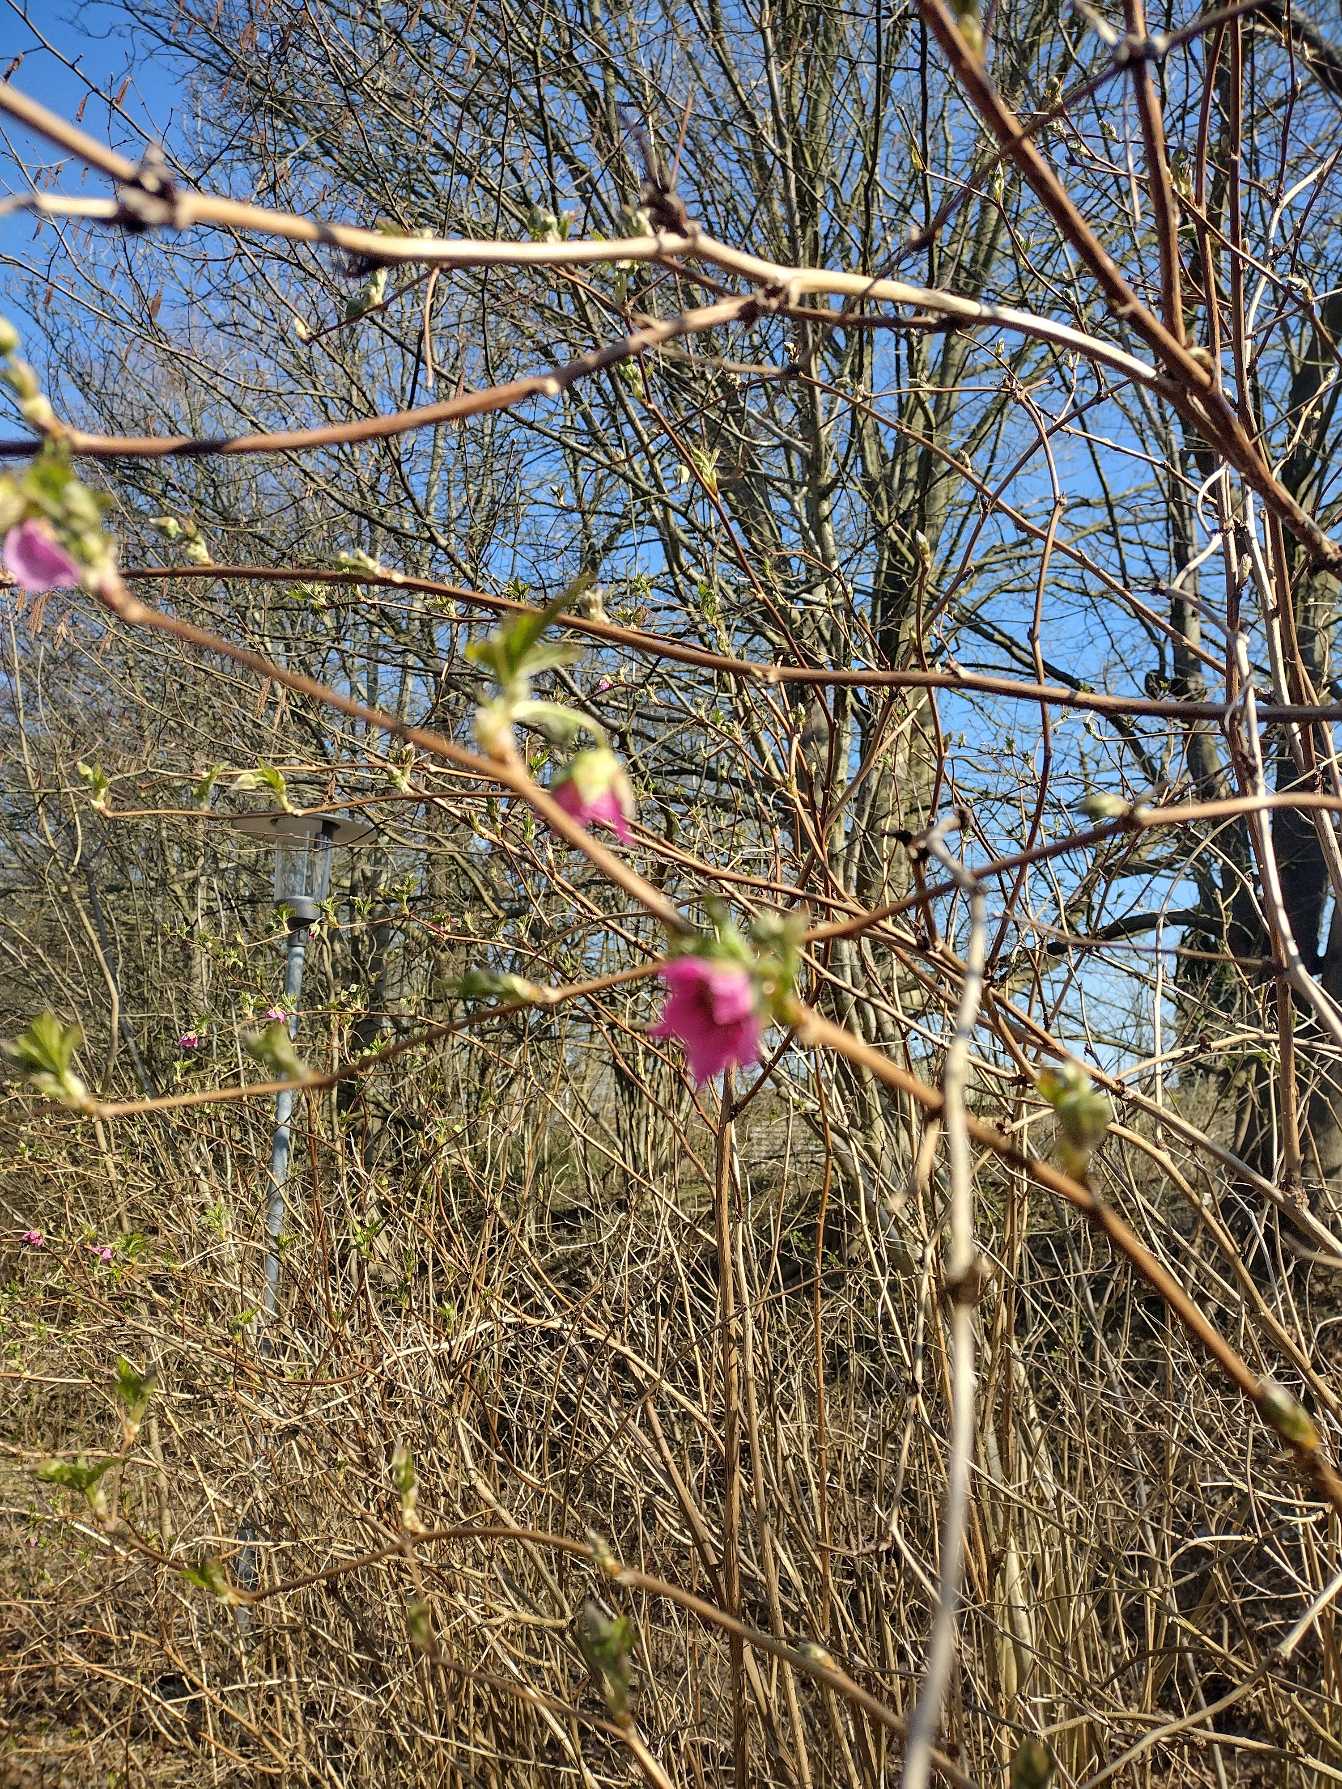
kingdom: Plantae
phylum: Tracheophyta
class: Magnoliopsida
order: Rosales
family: Rosaceae
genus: Rubus
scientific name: Rubus spectabilis
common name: Laksebær
